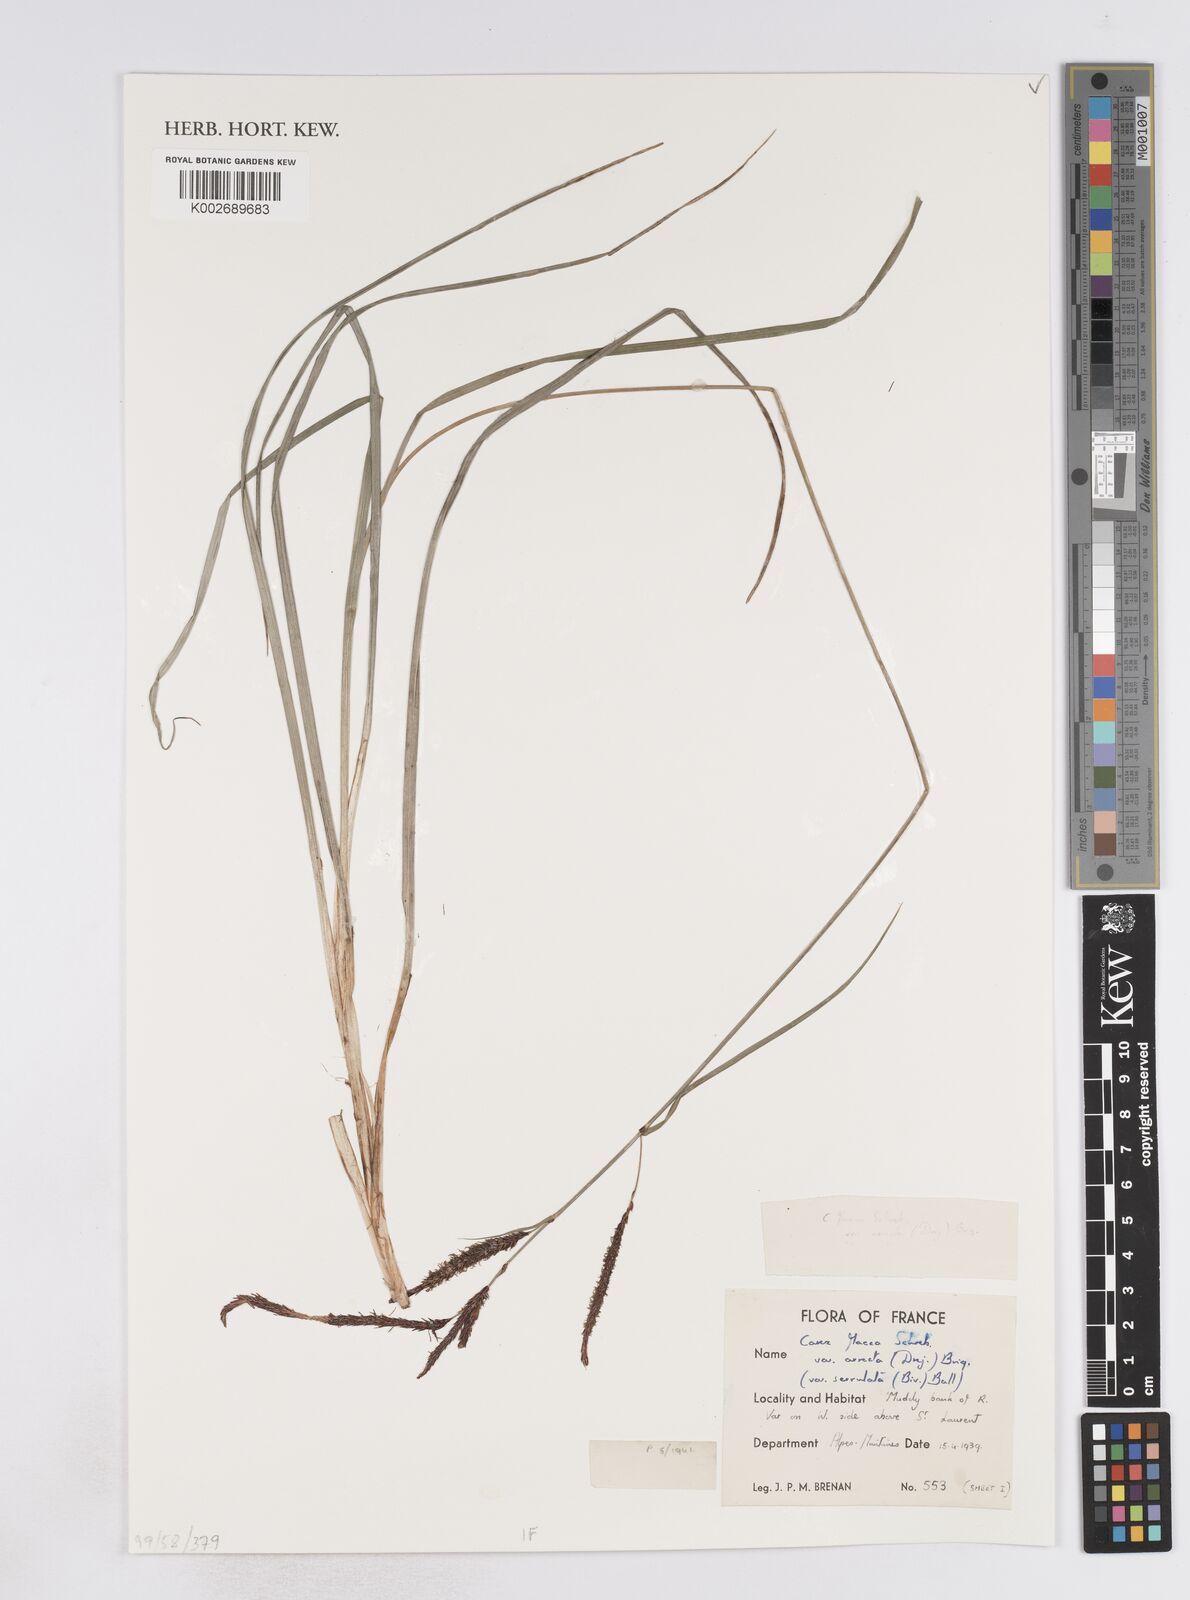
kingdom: Plantae
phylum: Tracheophyta
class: Liliopsida
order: Poales
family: Cyperaceae
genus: Carex
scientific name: Carex flacca
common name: Glaucous sedge
